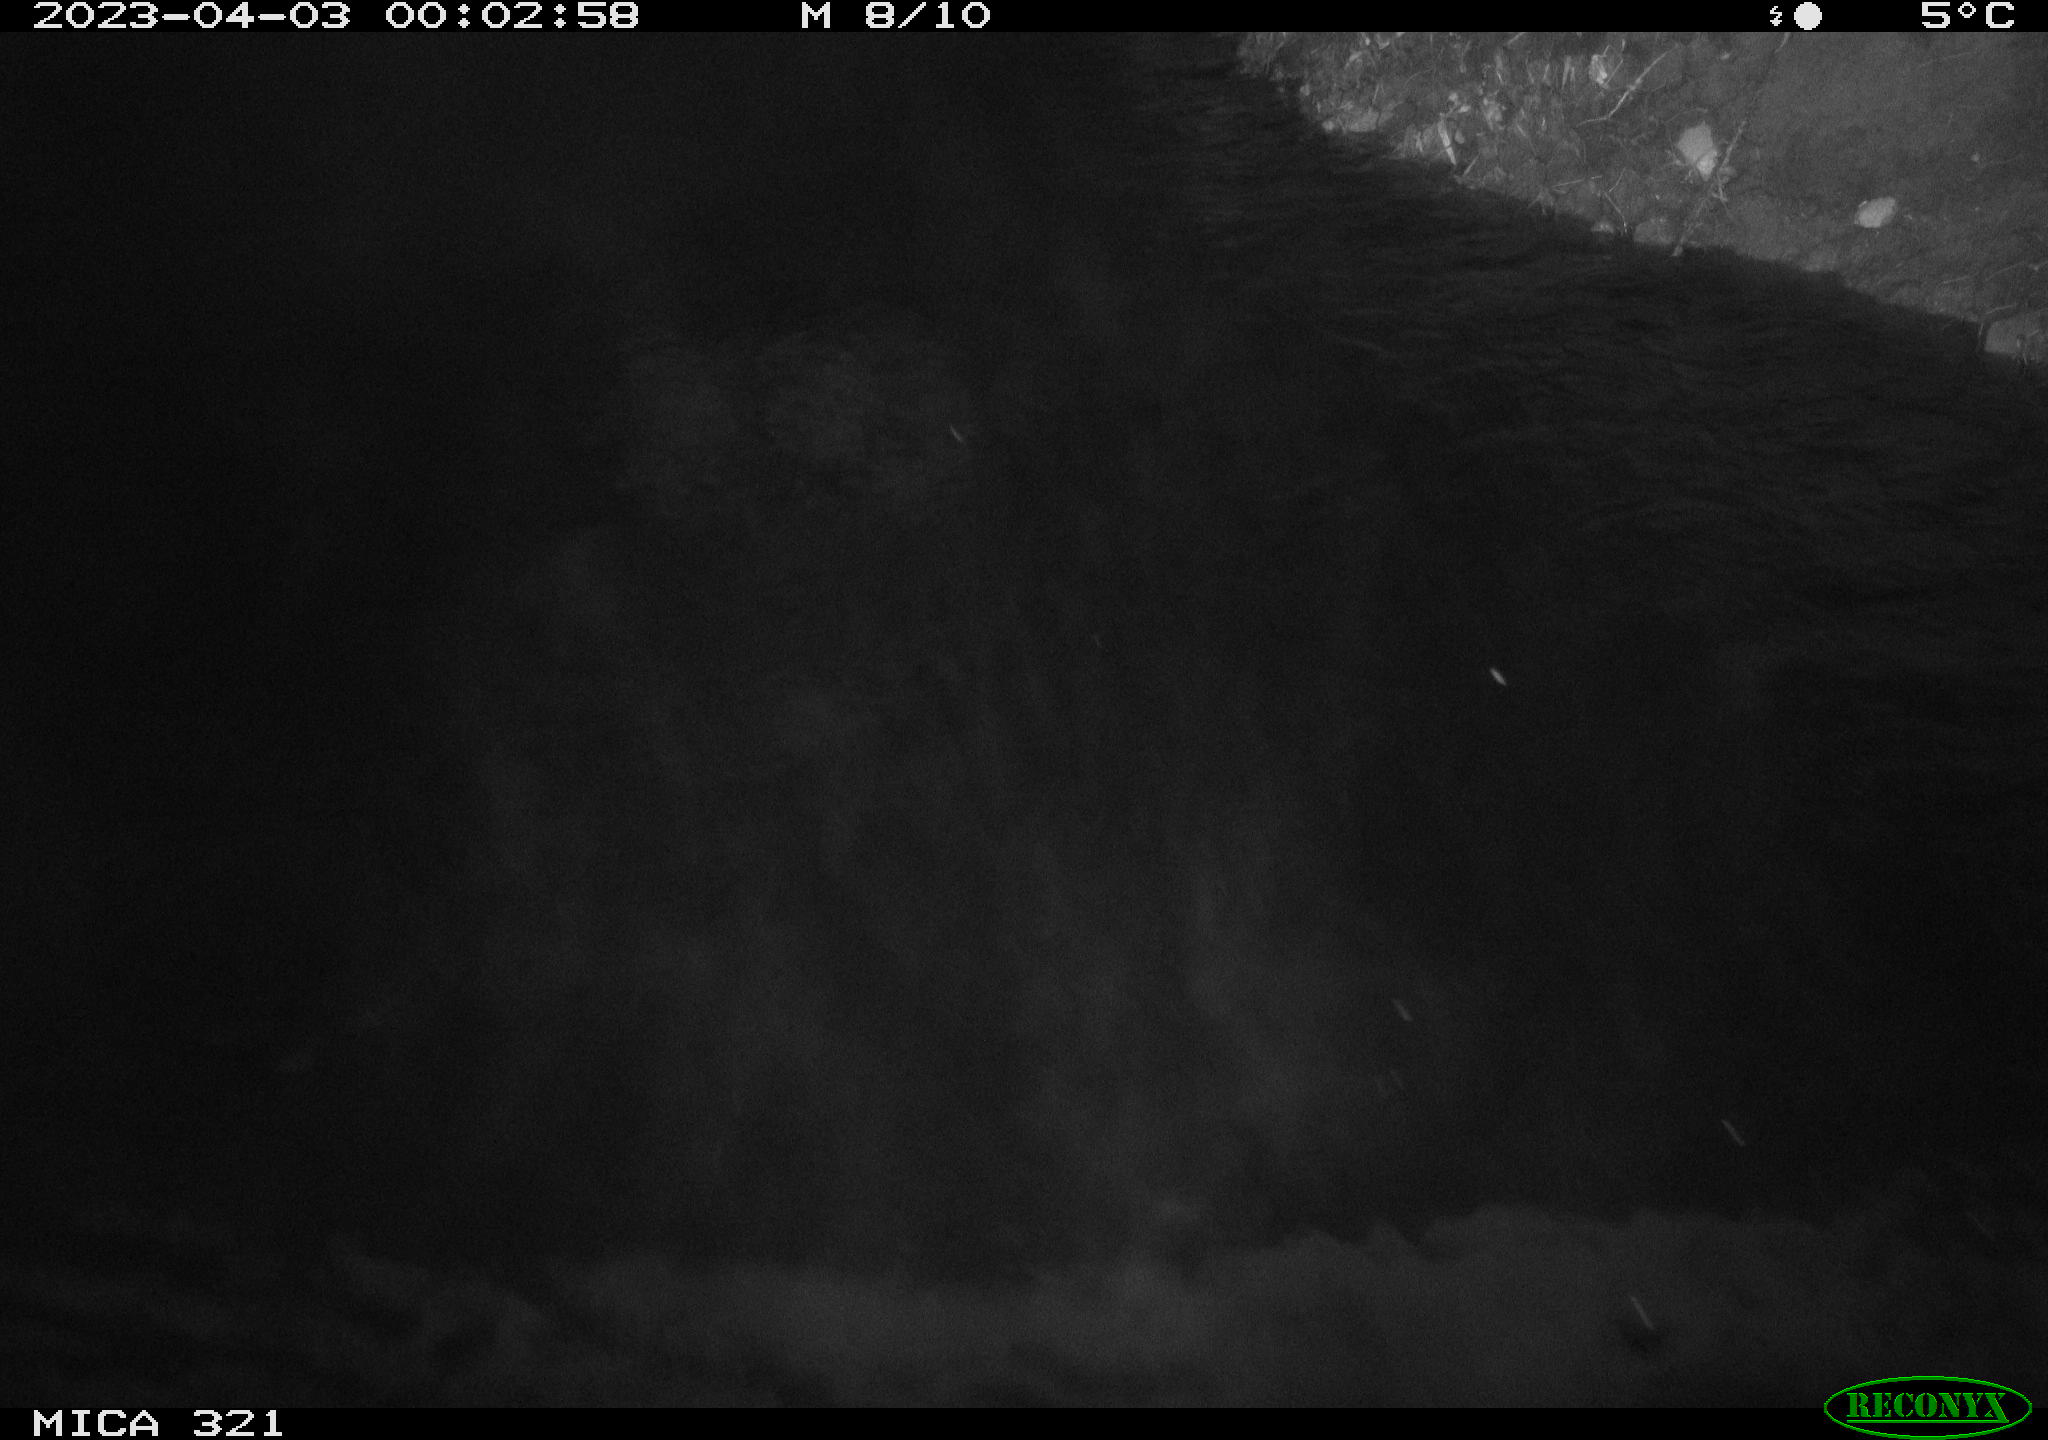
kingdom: Animalia
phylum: Chordata
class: Aves
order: Anseriformes
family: Anatidae
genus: Anas
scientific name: Anas
